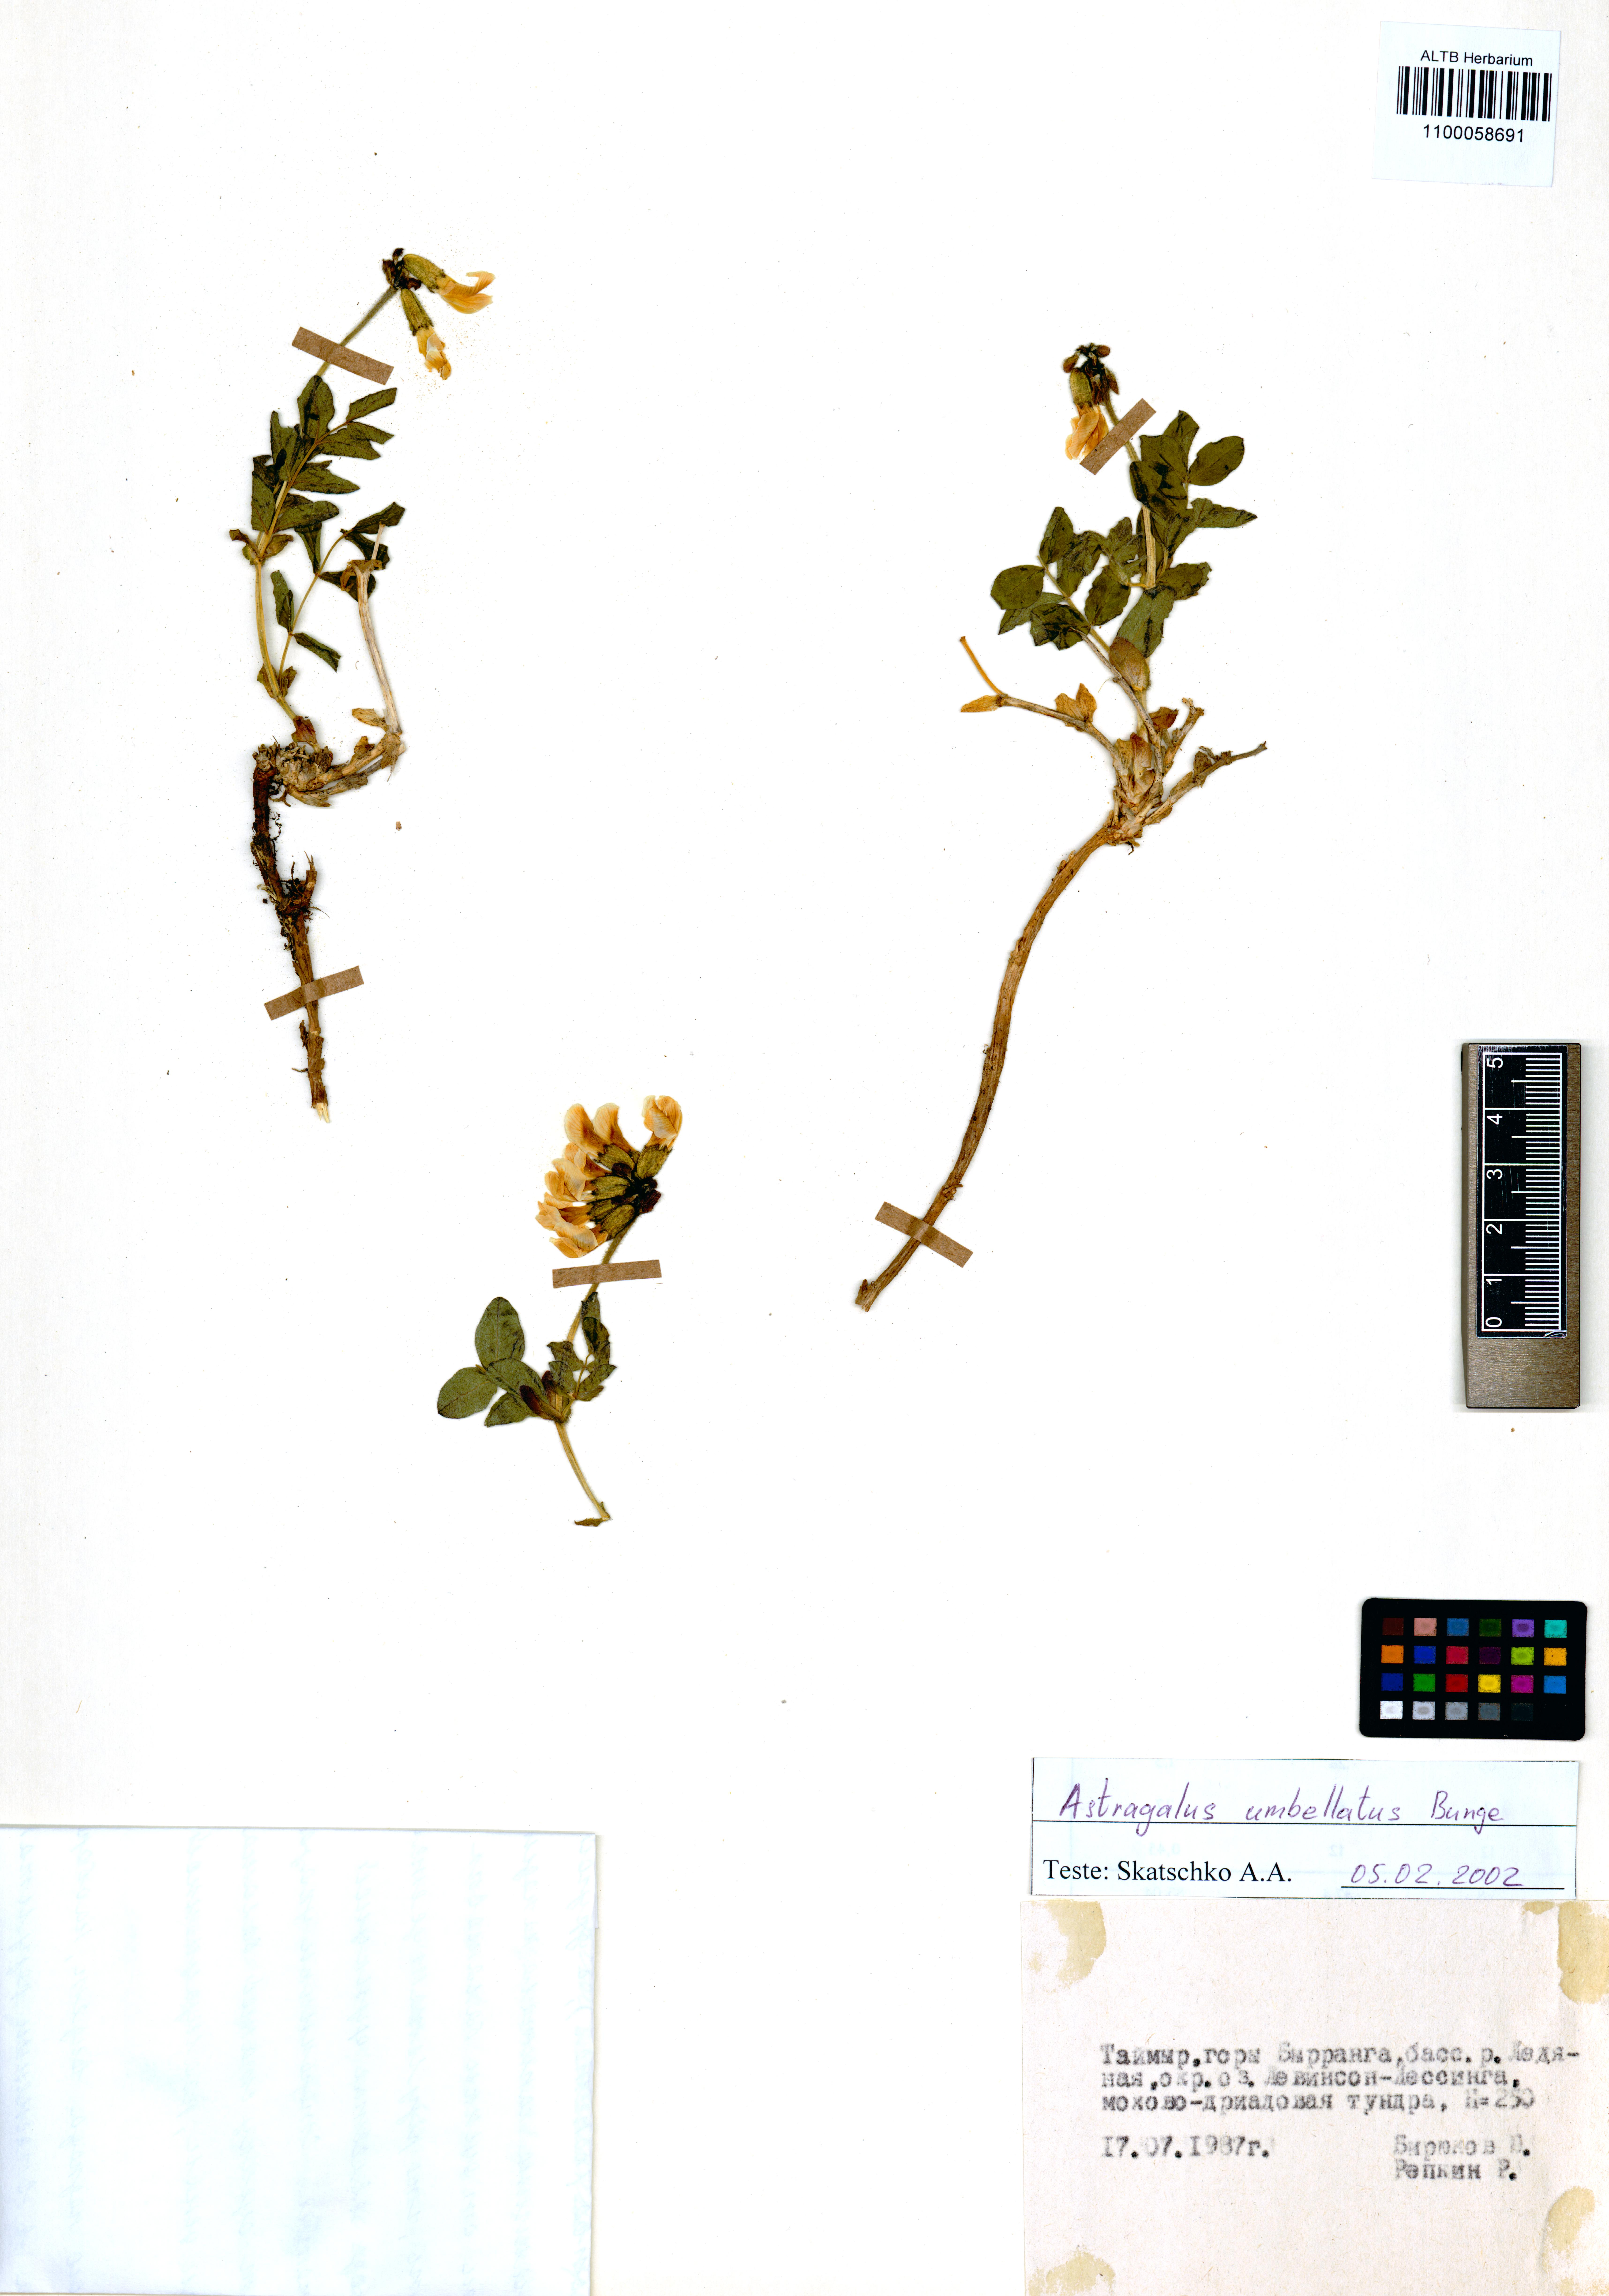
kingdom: Plantae
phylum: Tracheophyta
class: Magnoliopsida
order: Fabales
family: Fabaceae
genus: Astragalus
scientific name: Astragalus umbellatus
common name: Tundra milk-vetch
